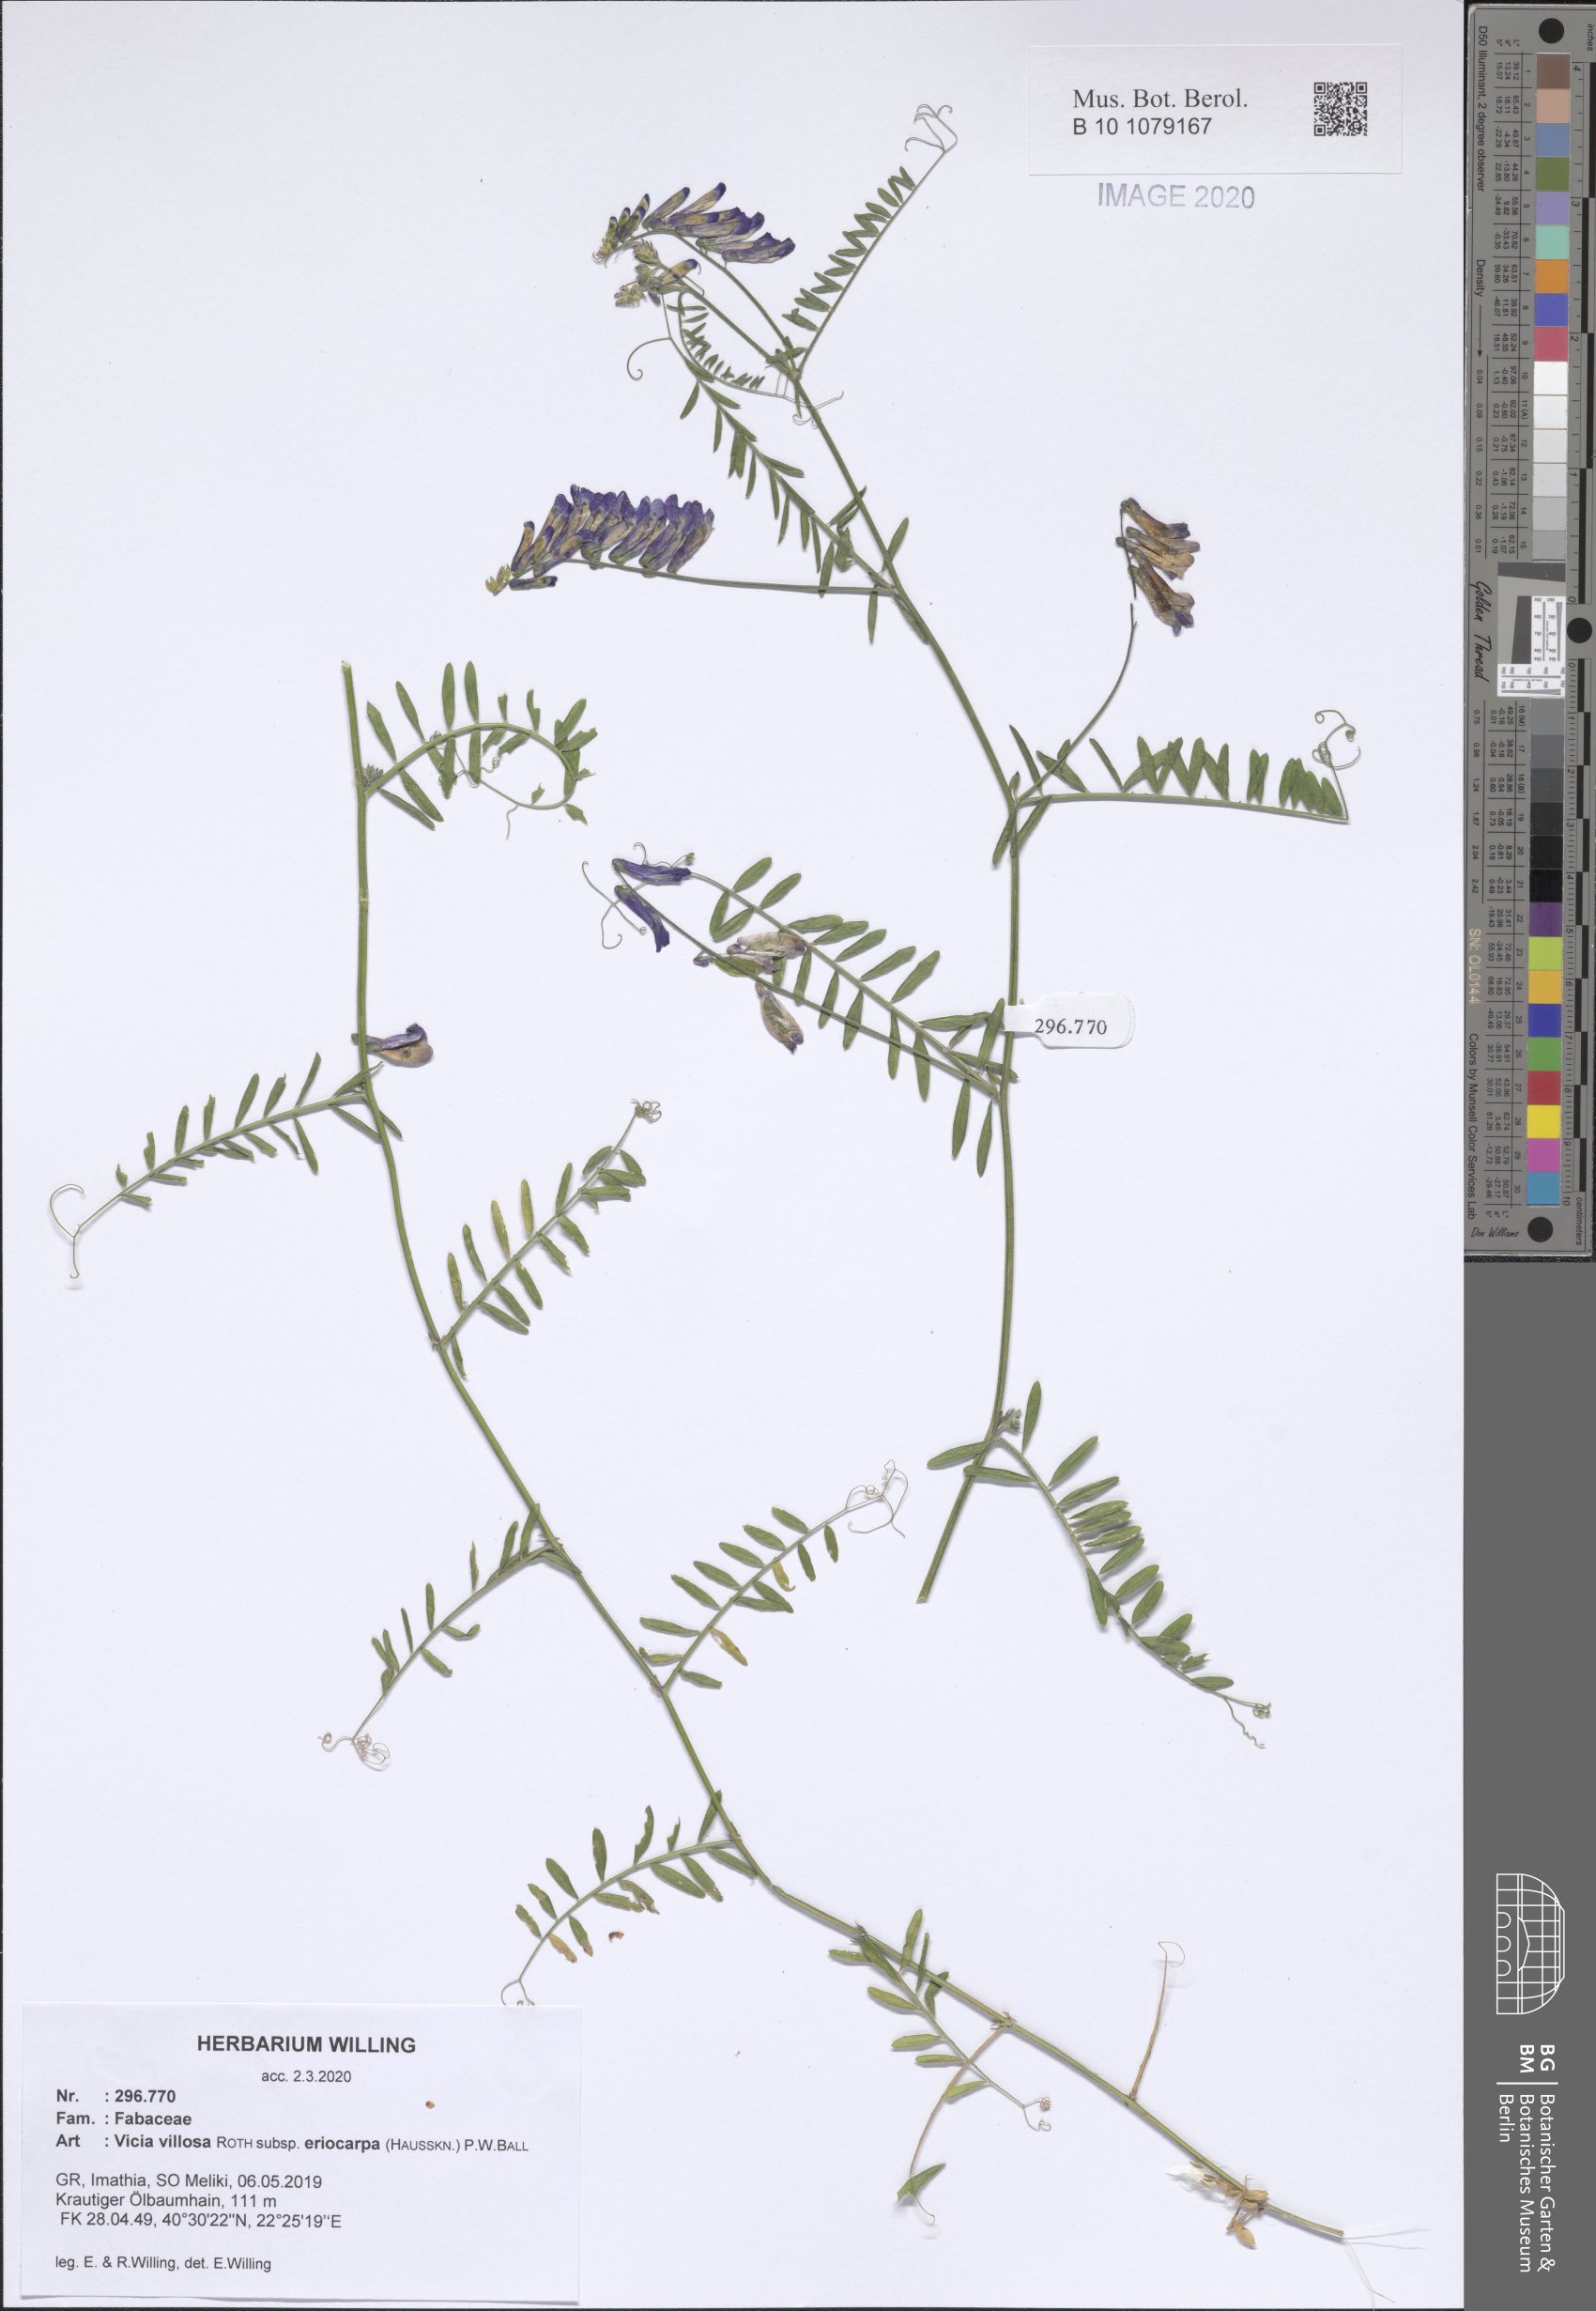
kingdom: Plantae
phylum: Tracheophyta
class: Magnoliopsida
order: Fabales
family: Fabaceae
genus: Vicia
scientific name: Vicia eriocarpa
